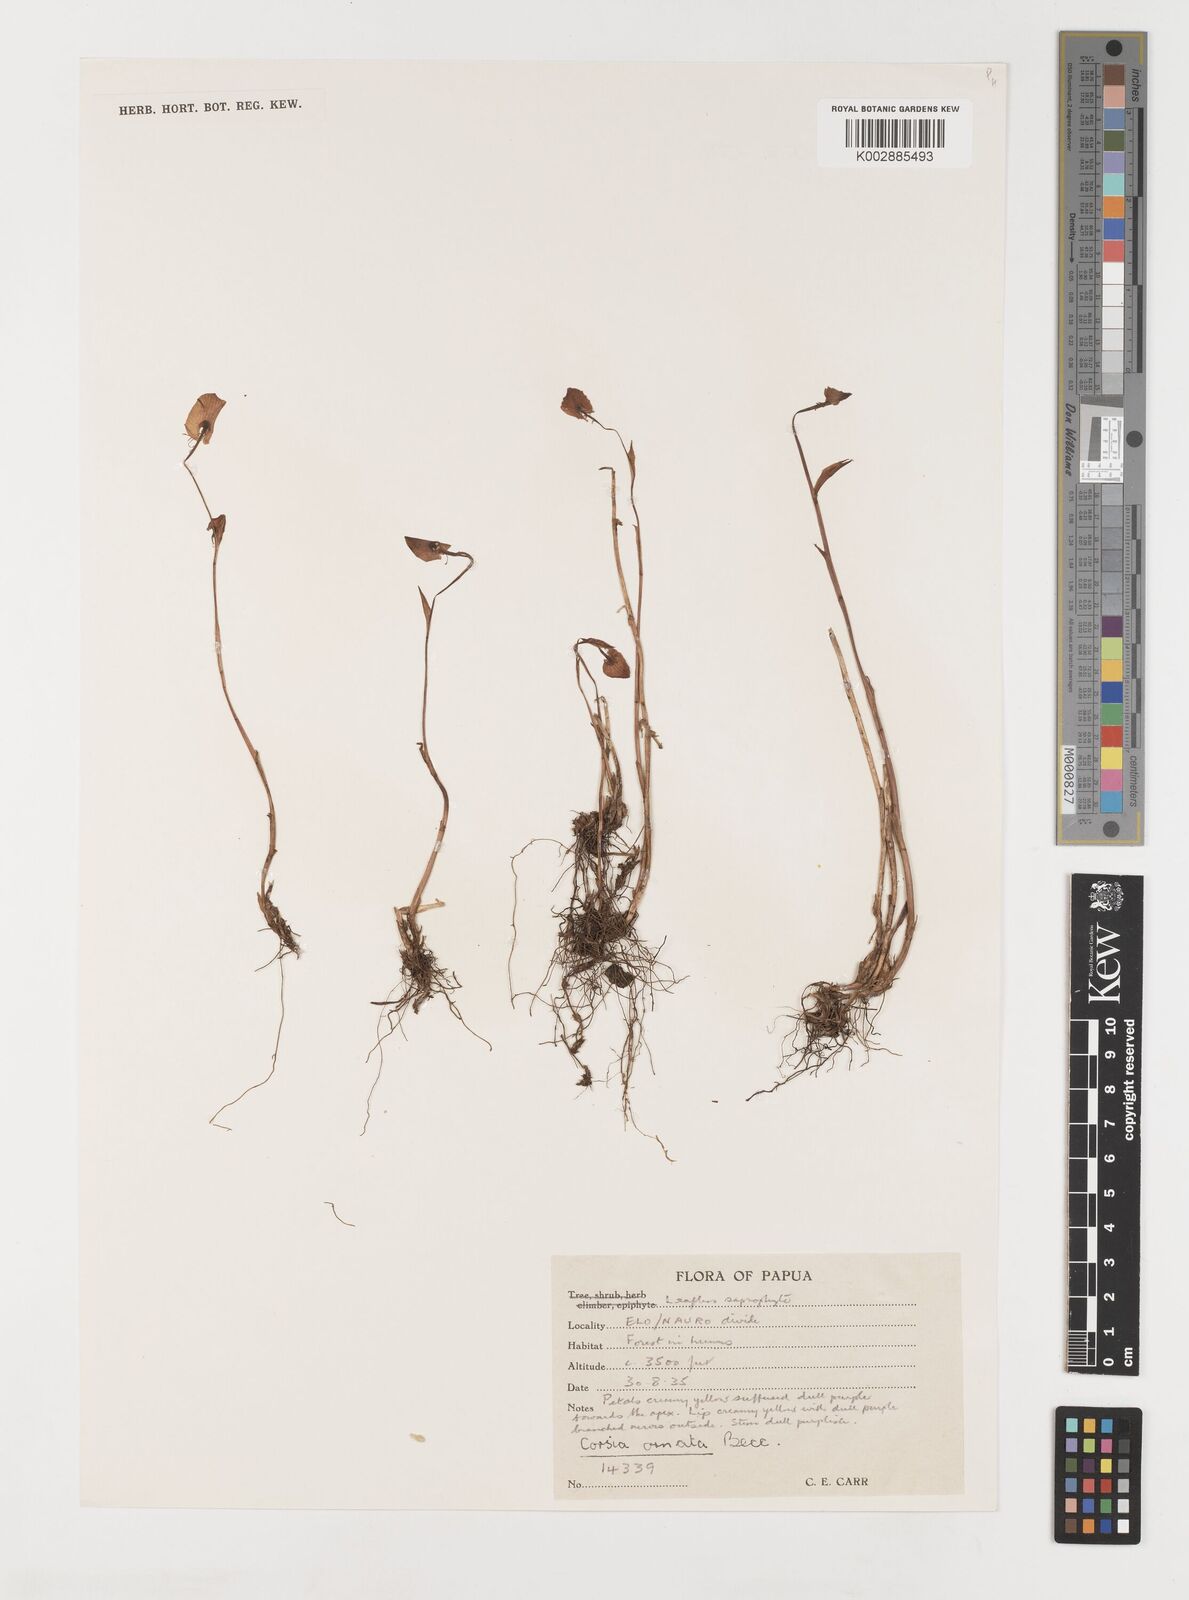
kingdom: Plantae
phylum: Tracheophyta
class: Liliopsida
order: Liliales
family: Corsiaceae
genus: Corsia
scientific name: Corsia ornata
